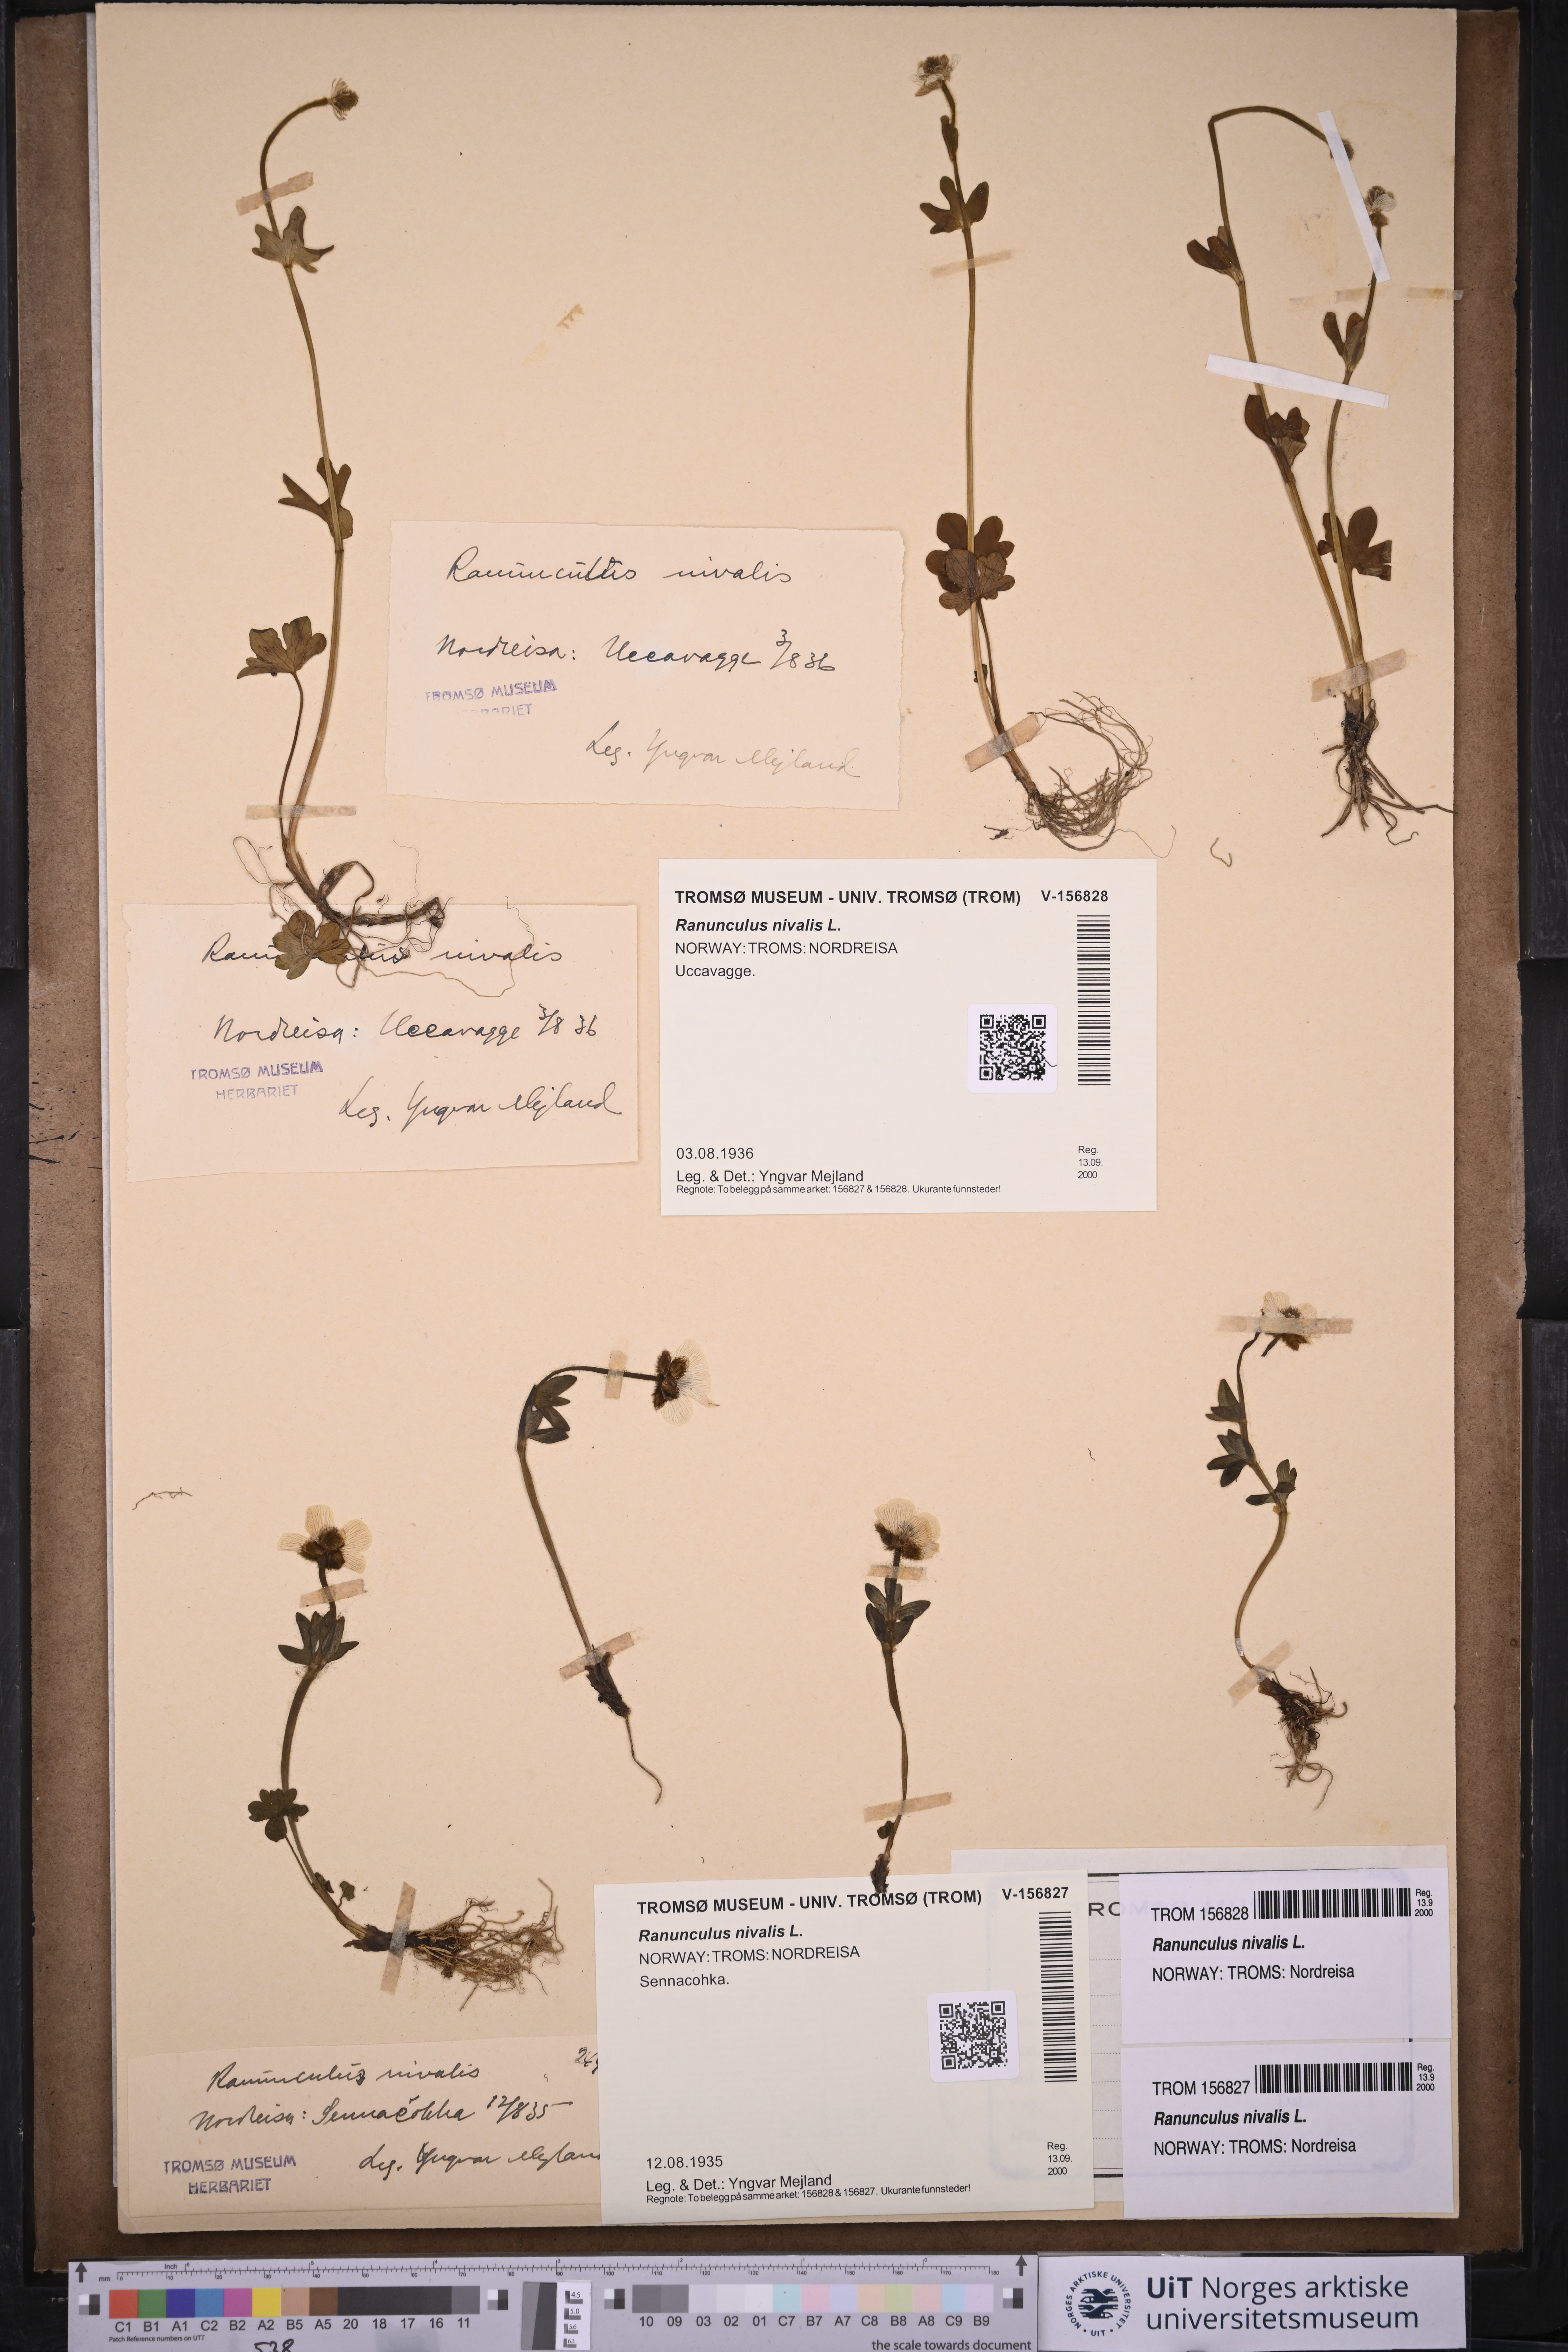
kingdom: Plantae
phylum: Tracheophyta
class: Magnoliopsida
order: Ranunculales
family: Ranunculaceae
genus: Ranunculus
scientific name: Ranunculus nivalis
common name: Snow buttercup
